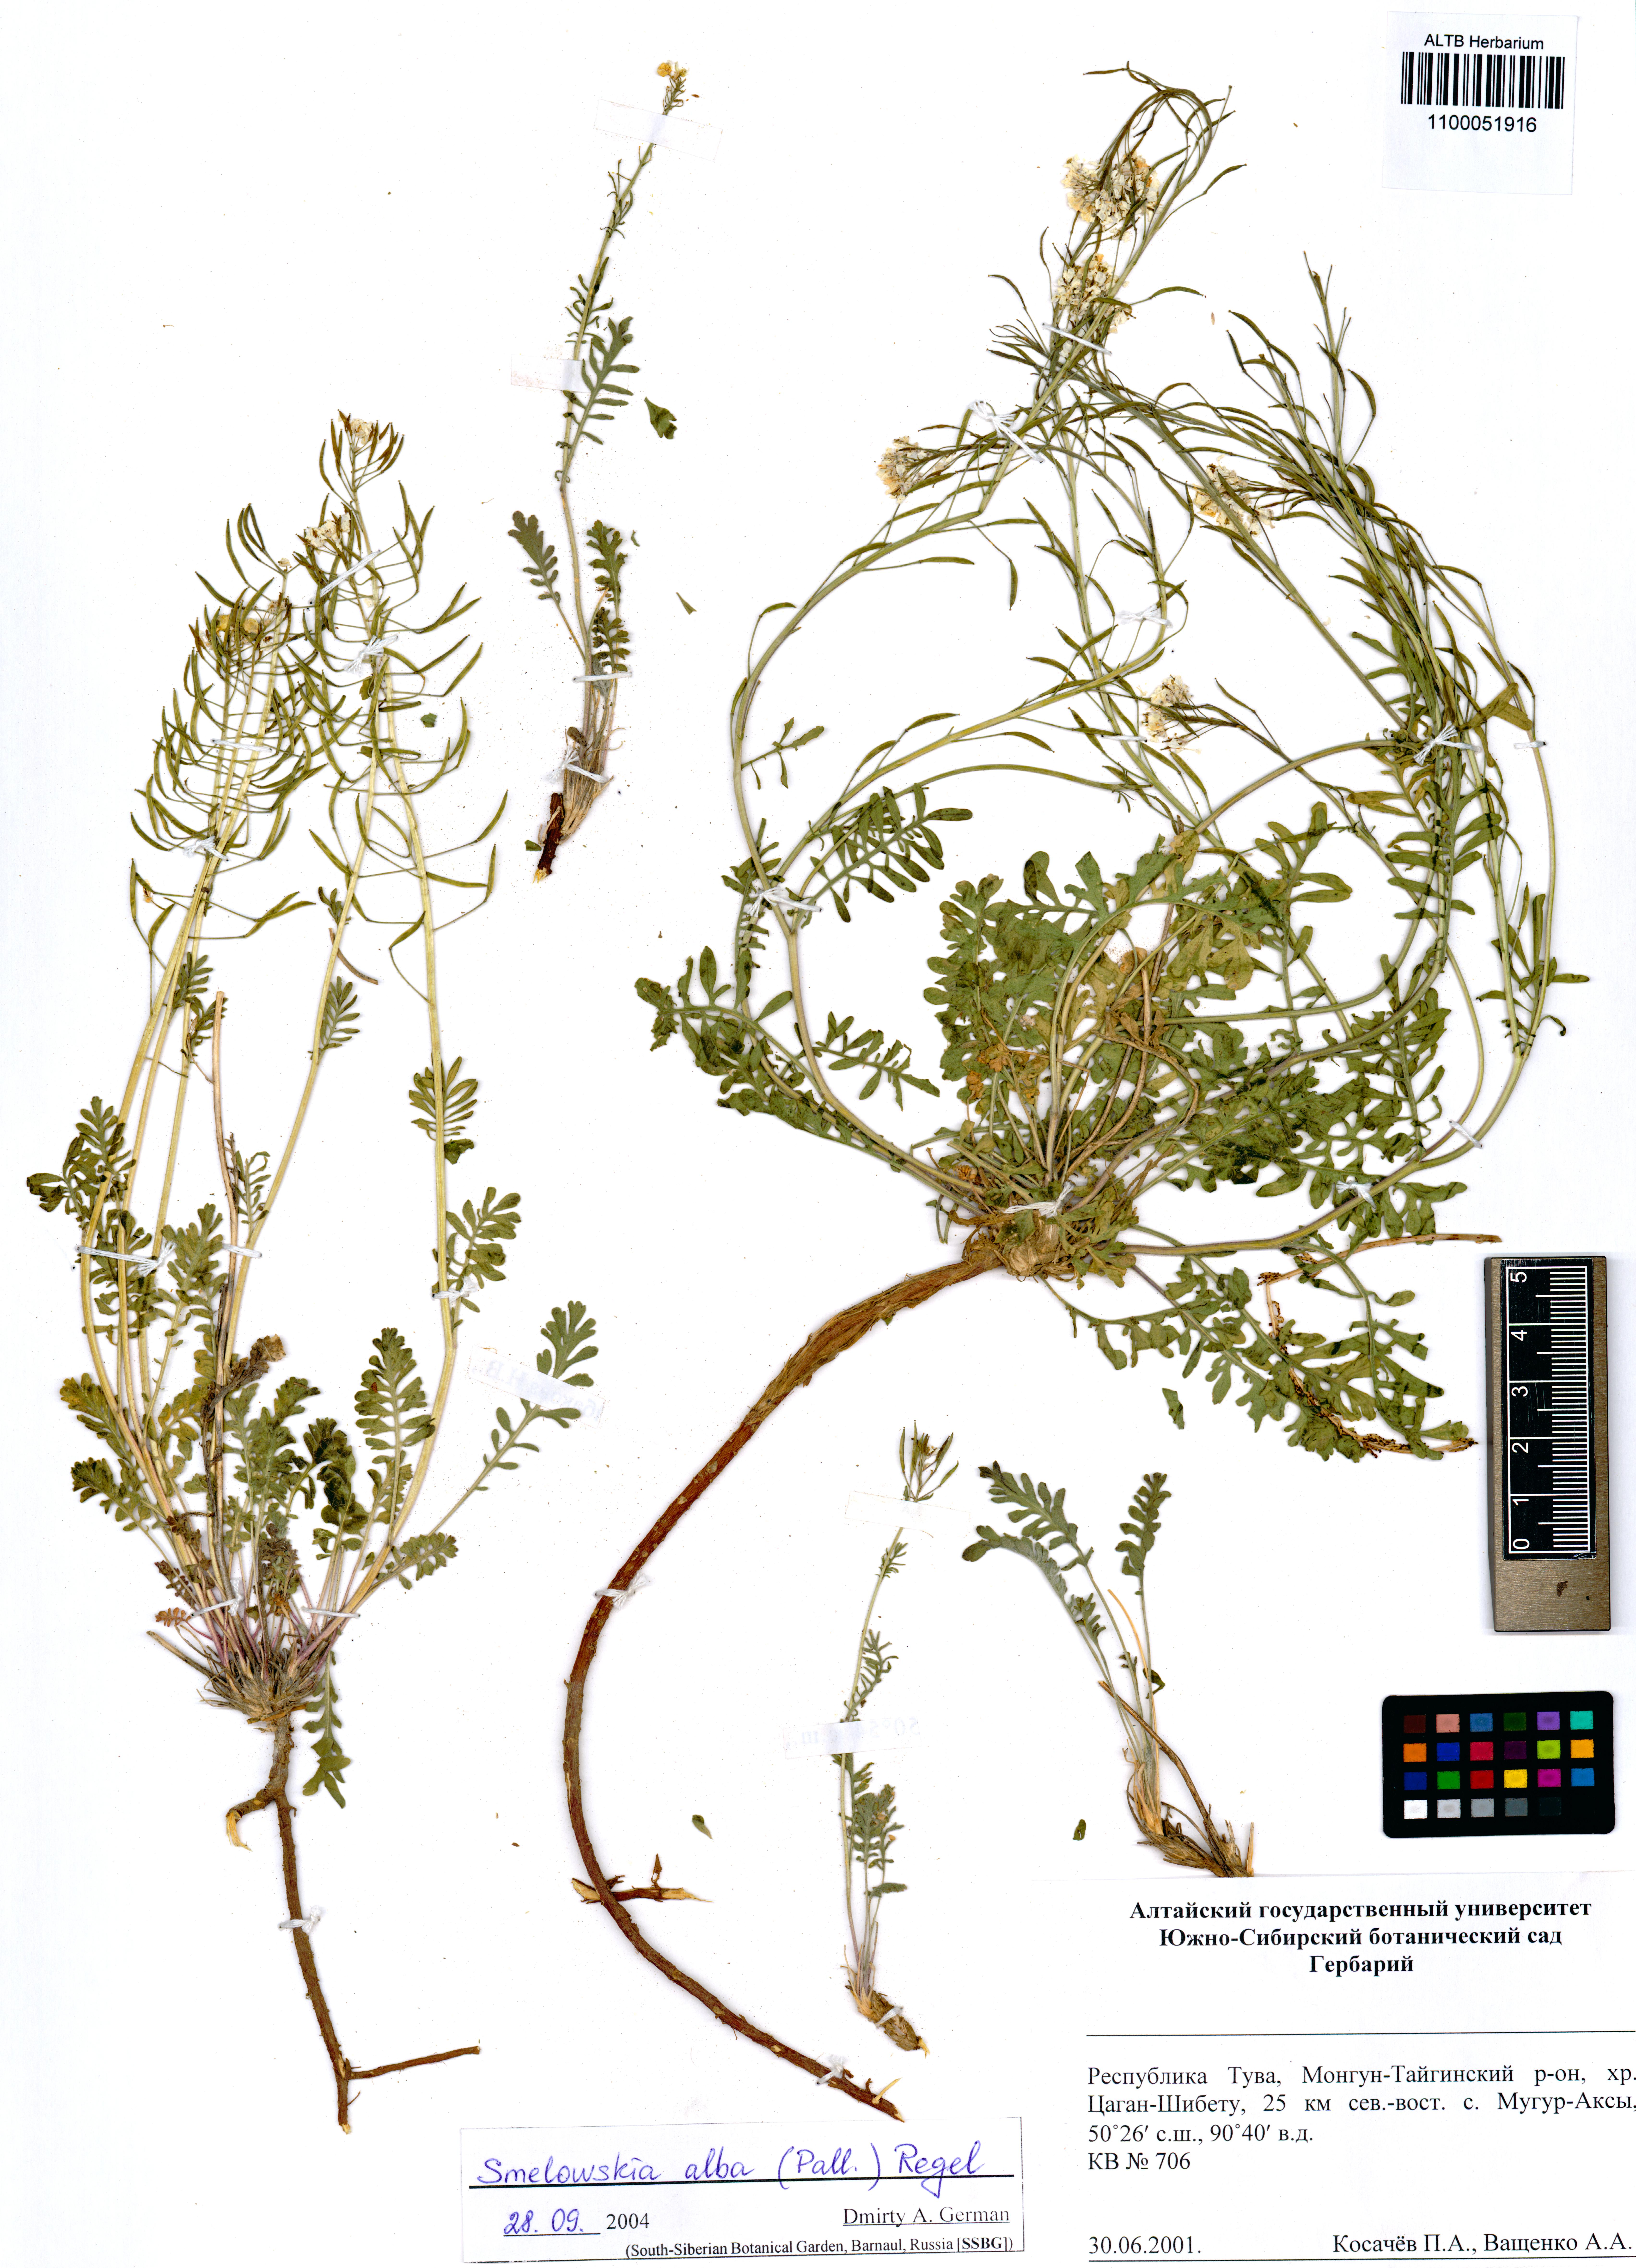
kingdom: Plantae
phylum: Tracheophyta
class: Magnoliopsida
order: Brassicales
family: Brassicaceae
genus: Smelowskia
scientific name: Smelowskia alba
